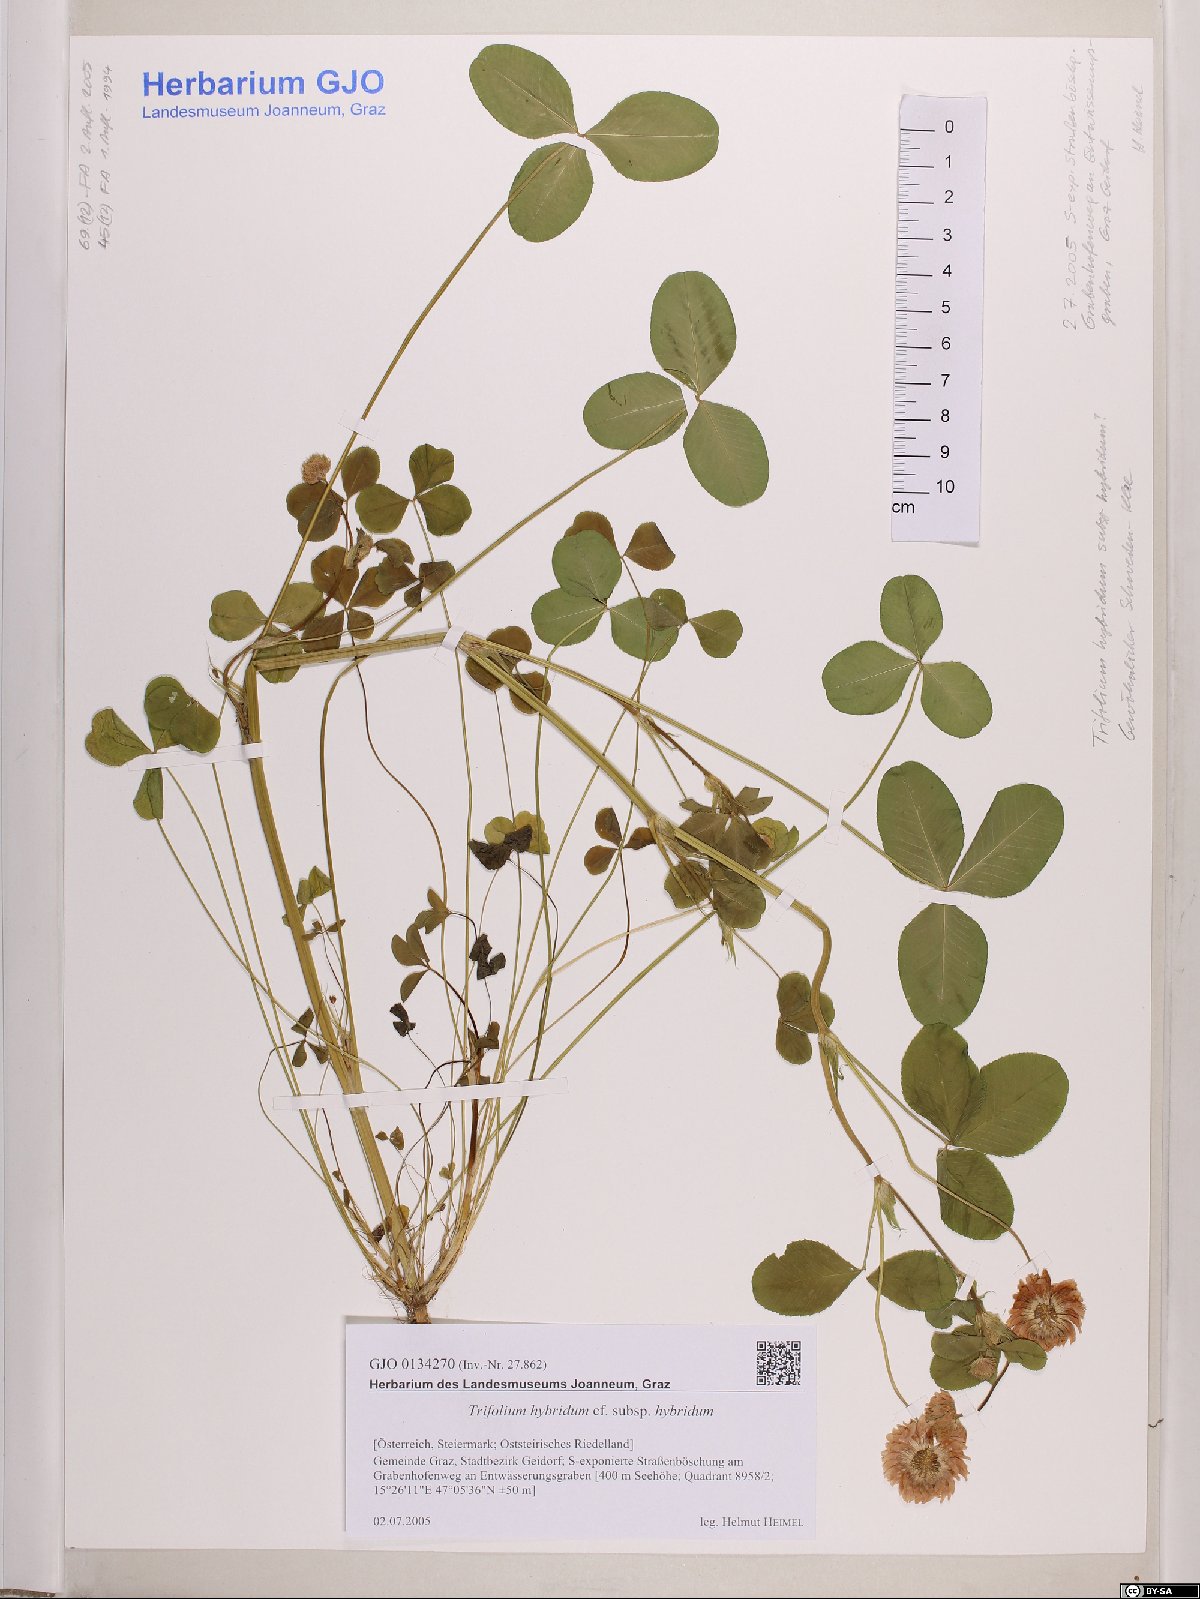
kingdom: Plantae
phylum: Tracheophyta
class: Magnoliopsida
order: Fabales
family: Fabaceae
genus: Trifolium
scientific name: Trifolium hybridum
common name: Alsike clover
